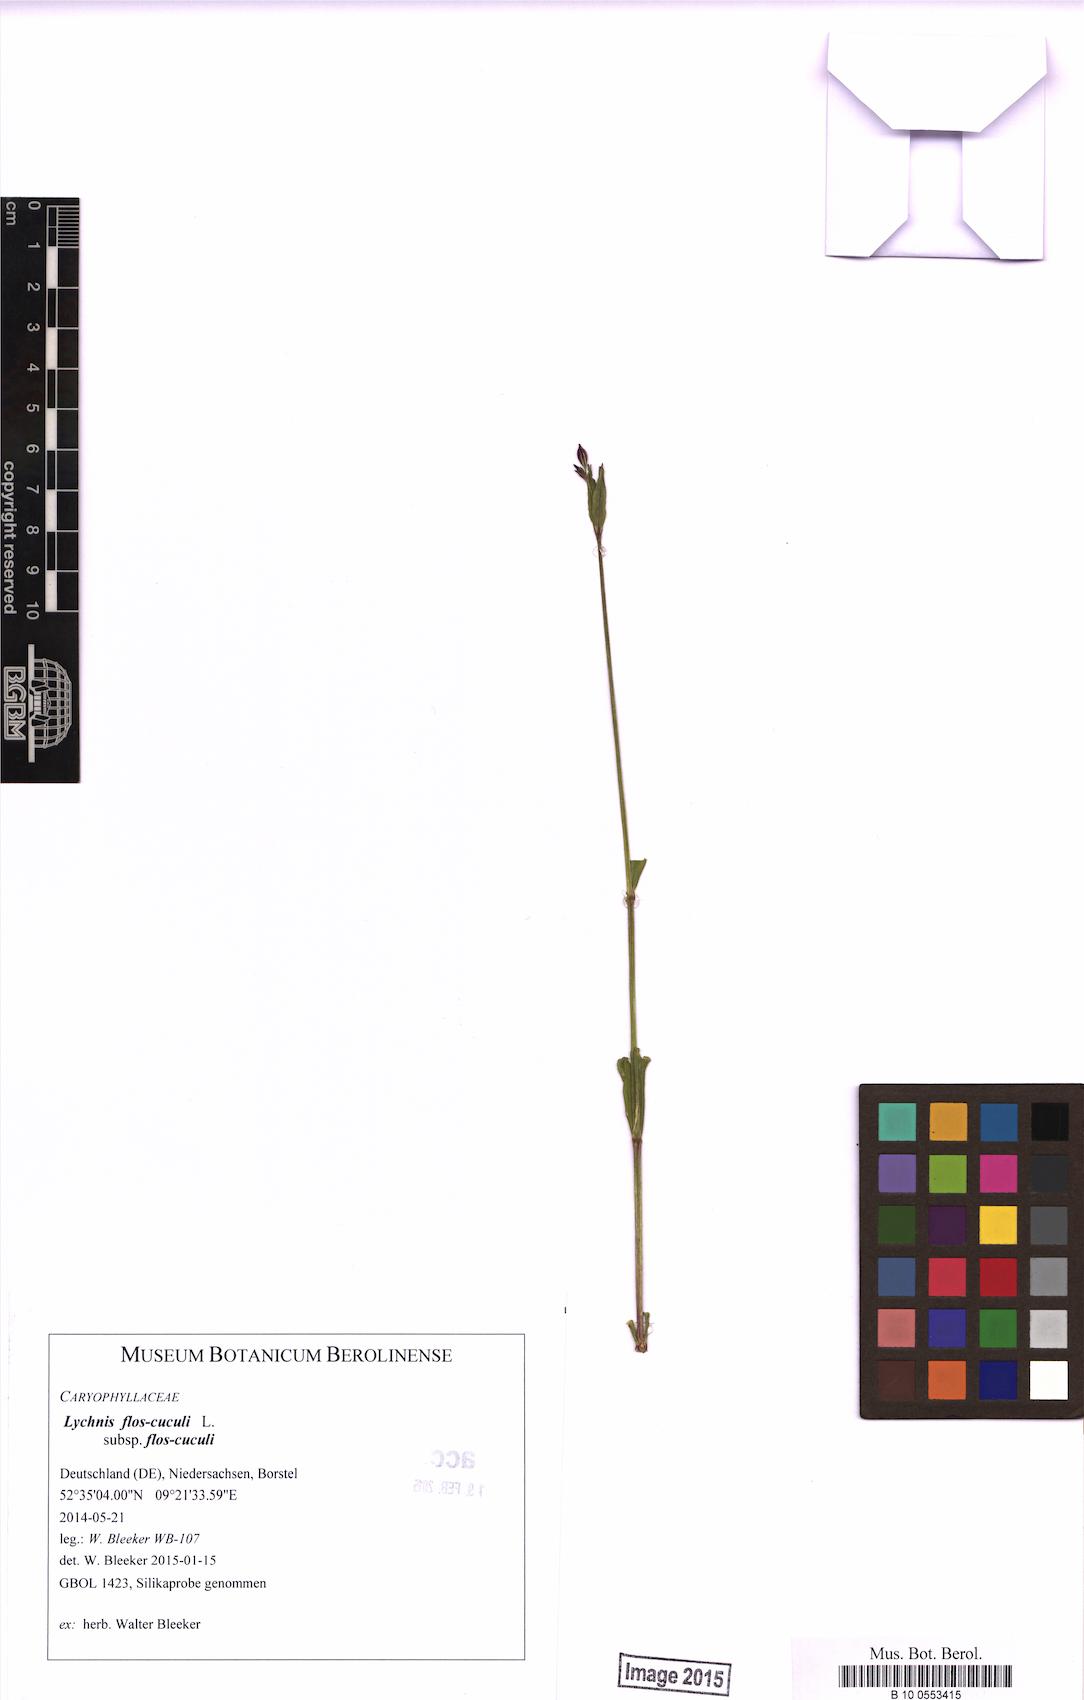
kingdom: Plantae
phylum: Tracheophyta
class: Magnoliopsida
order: Caryophyllales
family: Caryophyllaceae
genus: Silene
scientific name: Silene flos-cuculi
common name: Ragged-robin
